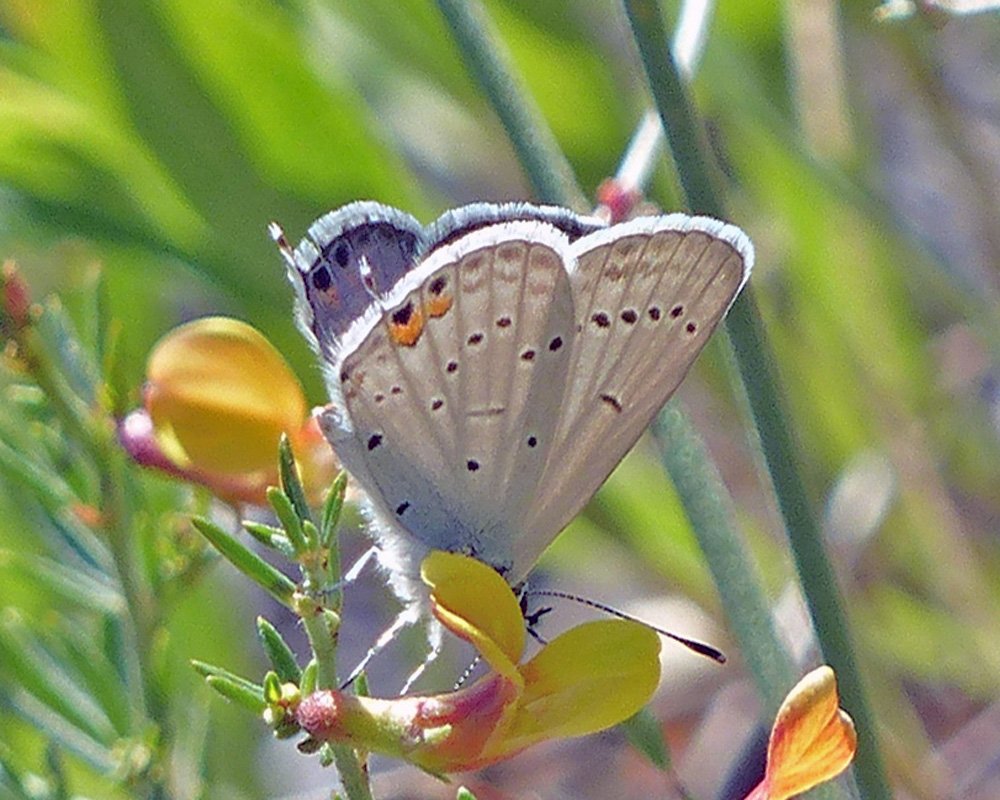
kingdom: Animalia
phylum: Arthropoda
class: Insecta
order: Lepidoptera
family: Lycaenidae
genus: Elkalyce
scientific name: Elkalyce amyntula
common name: Western Tailed-Blue
